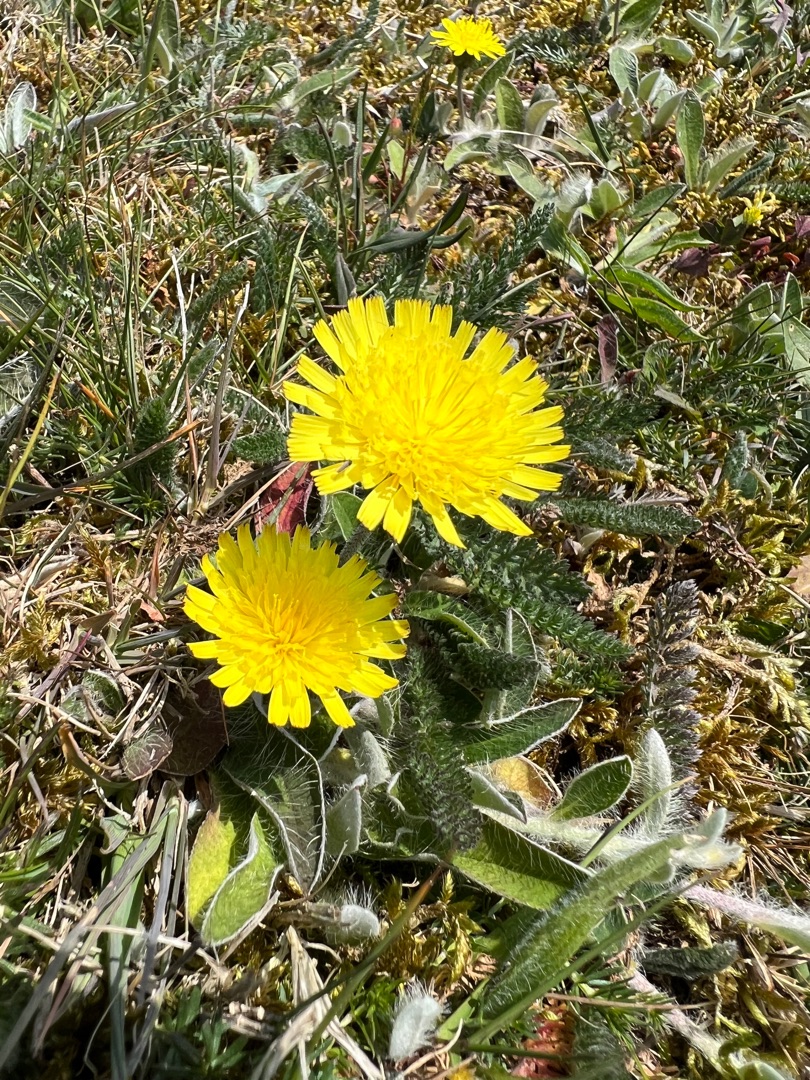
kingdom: Plantae
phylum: Tracheophyta
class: Magnoliopsida
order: Asterales
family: Asteraceae
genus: Pilosella
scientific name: Pilosella officinarum
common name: Håret høgeurt
